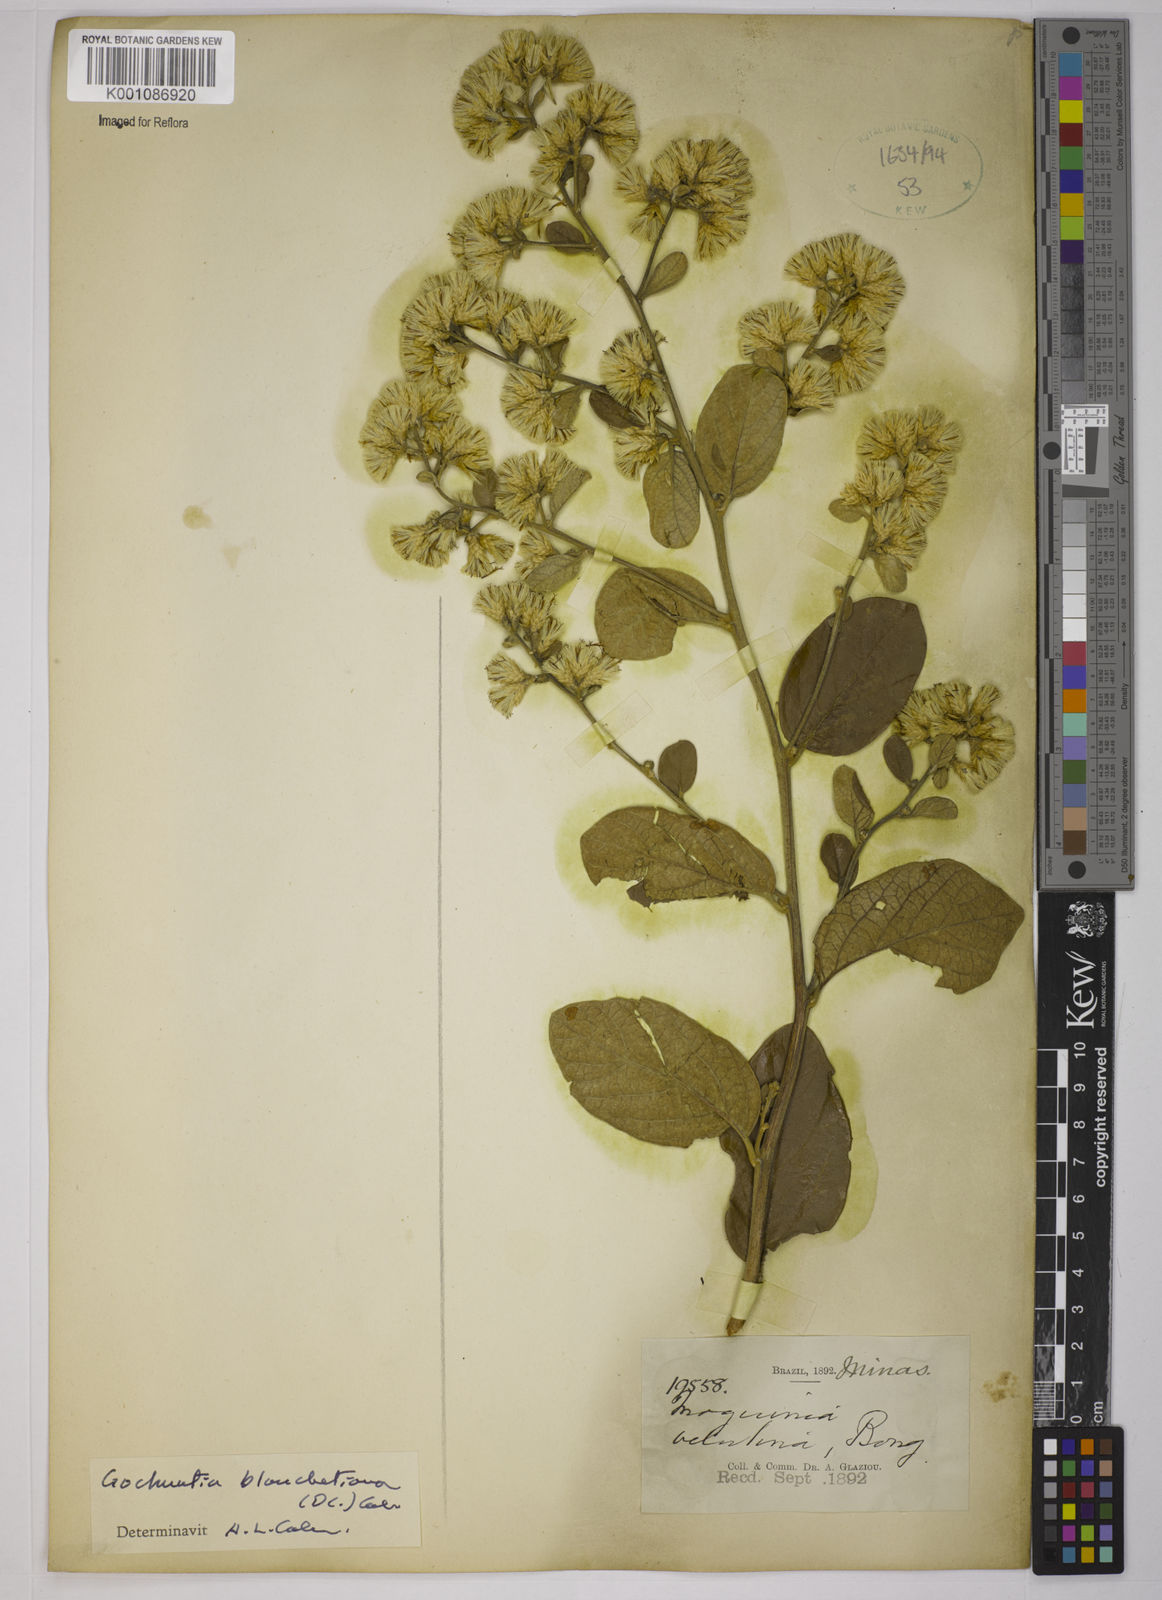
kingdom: Plantae
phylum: Tracheophyta
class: Magnoliopsida
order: Asterales
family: Asteraceae
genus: Moquiniastrum
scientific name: Moquiniastrum blanchetianum
